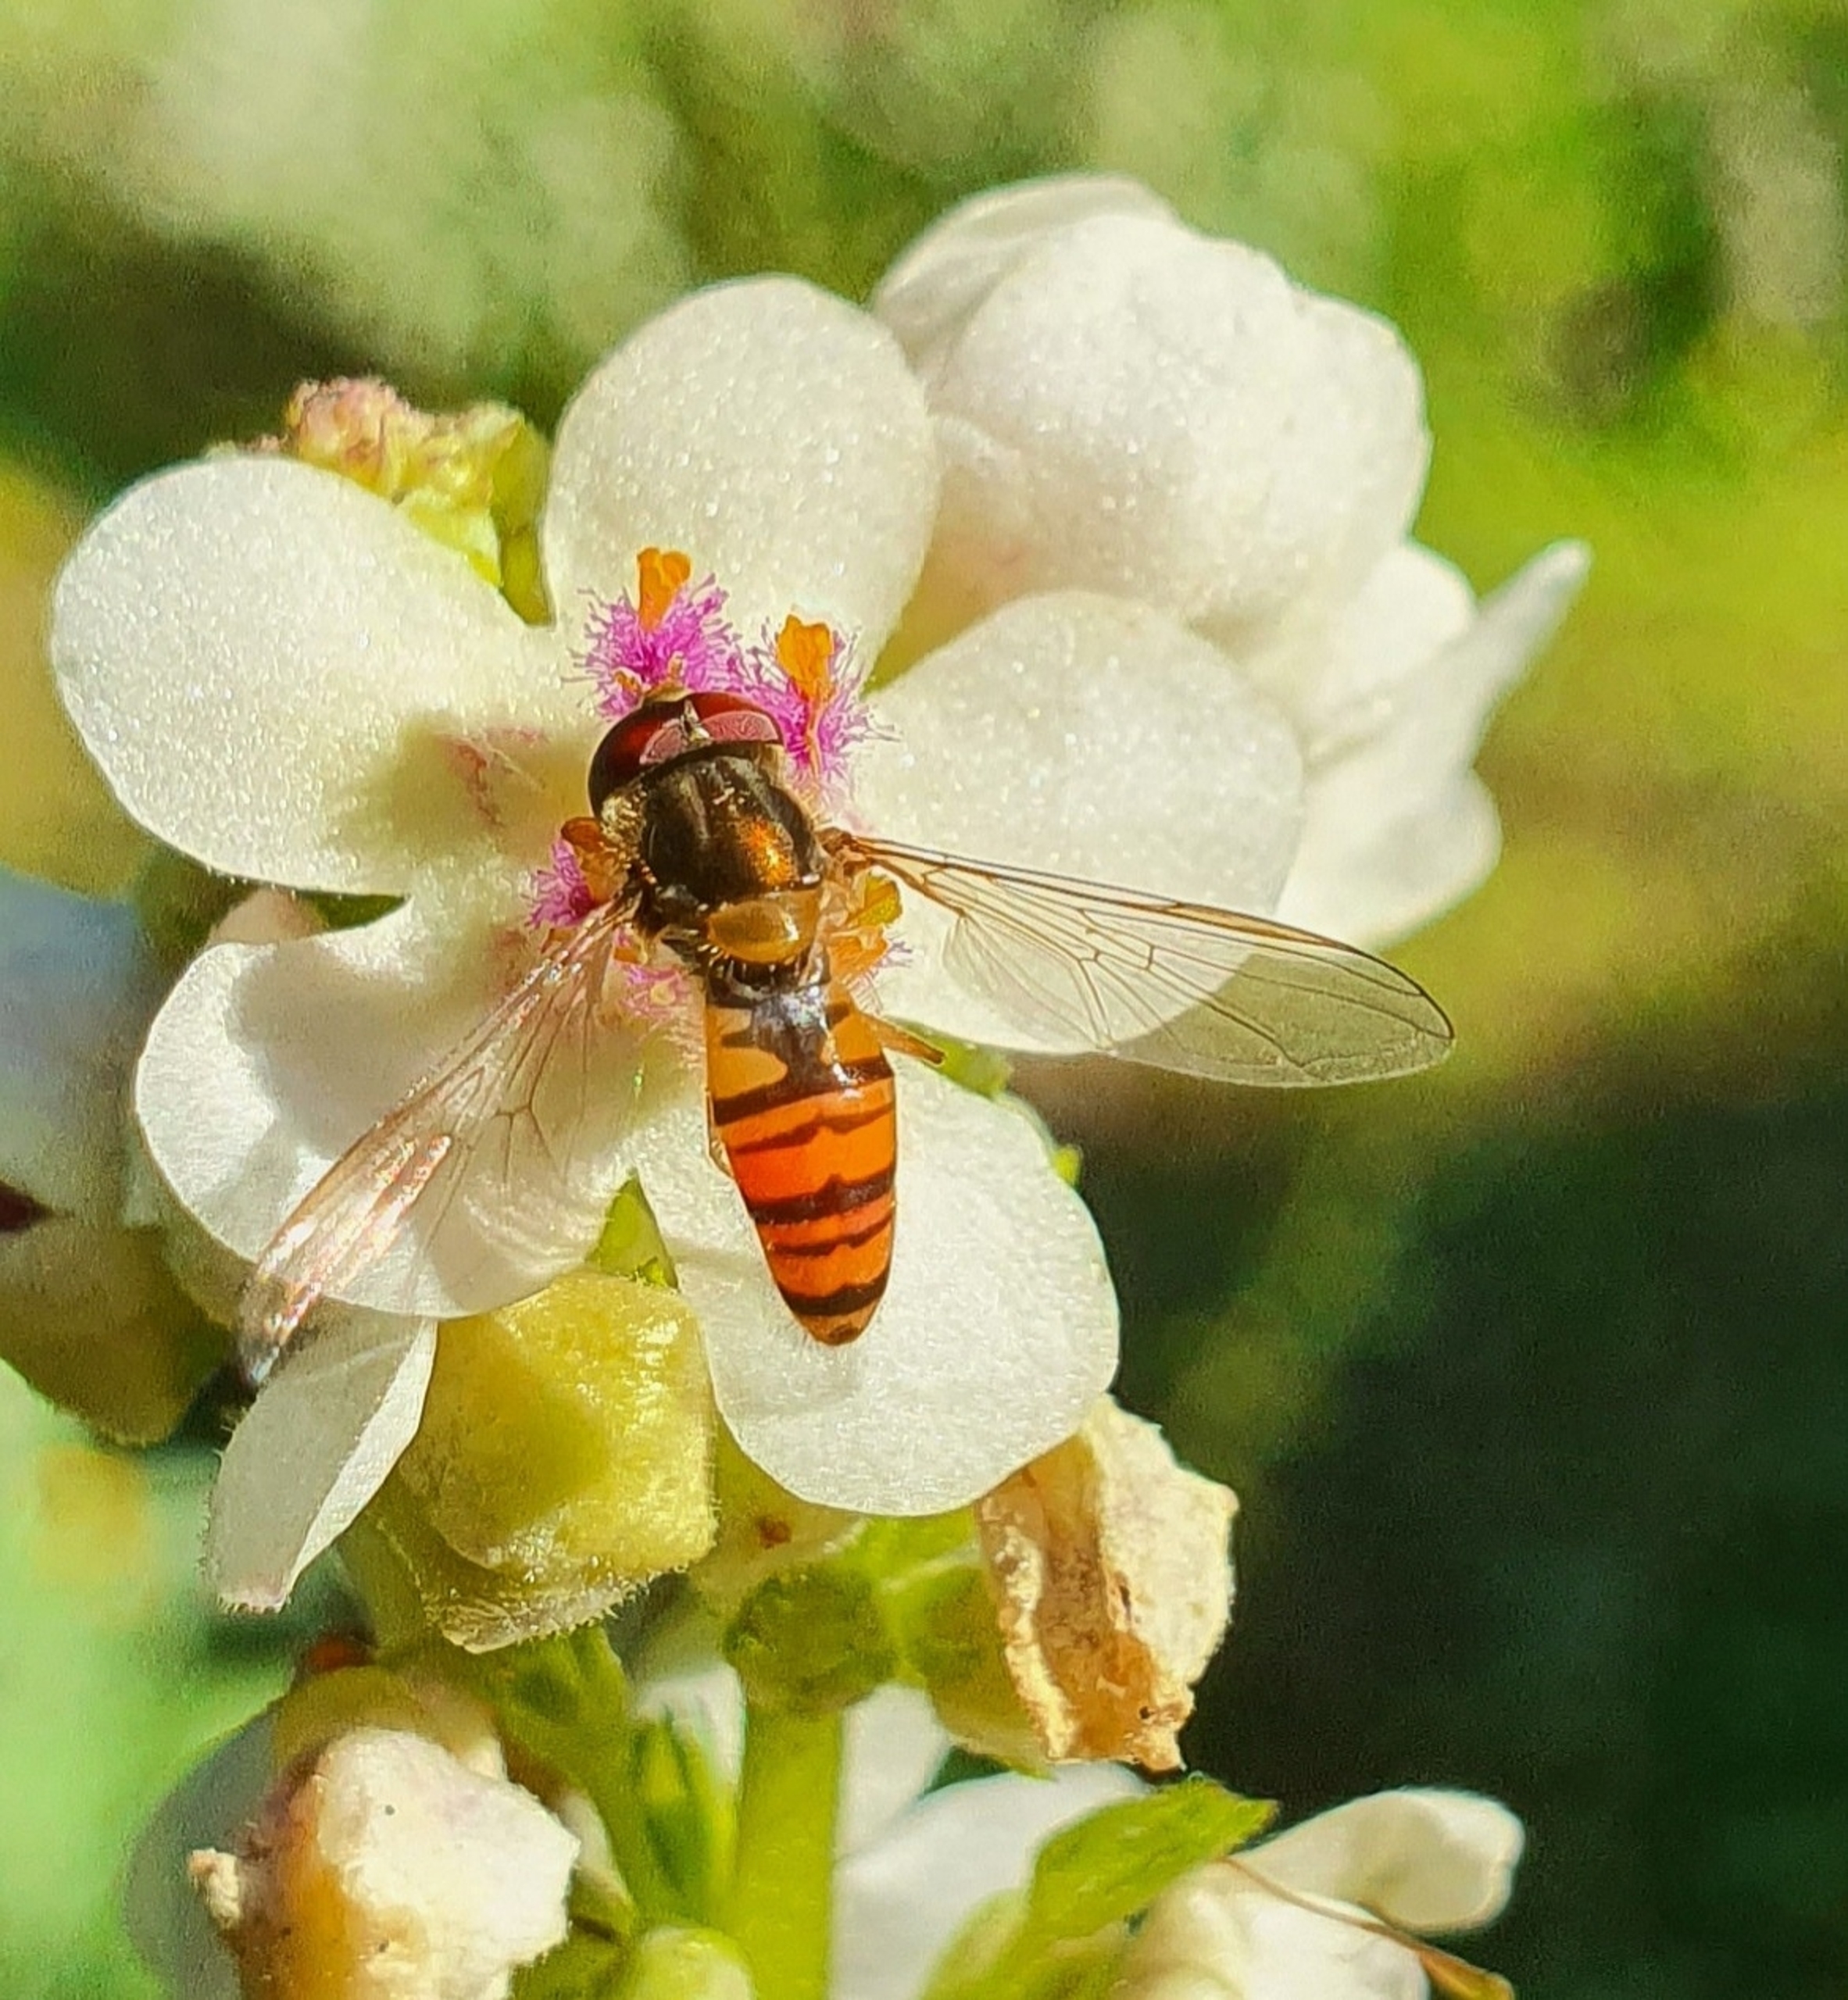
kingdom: Animalia
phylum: Arthropoda
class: Insecta
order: Diptera
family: Syrphidae
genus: Episyrphus
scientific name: Episyrphus balteatus
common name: Dobbeltbåndet svirreflue
